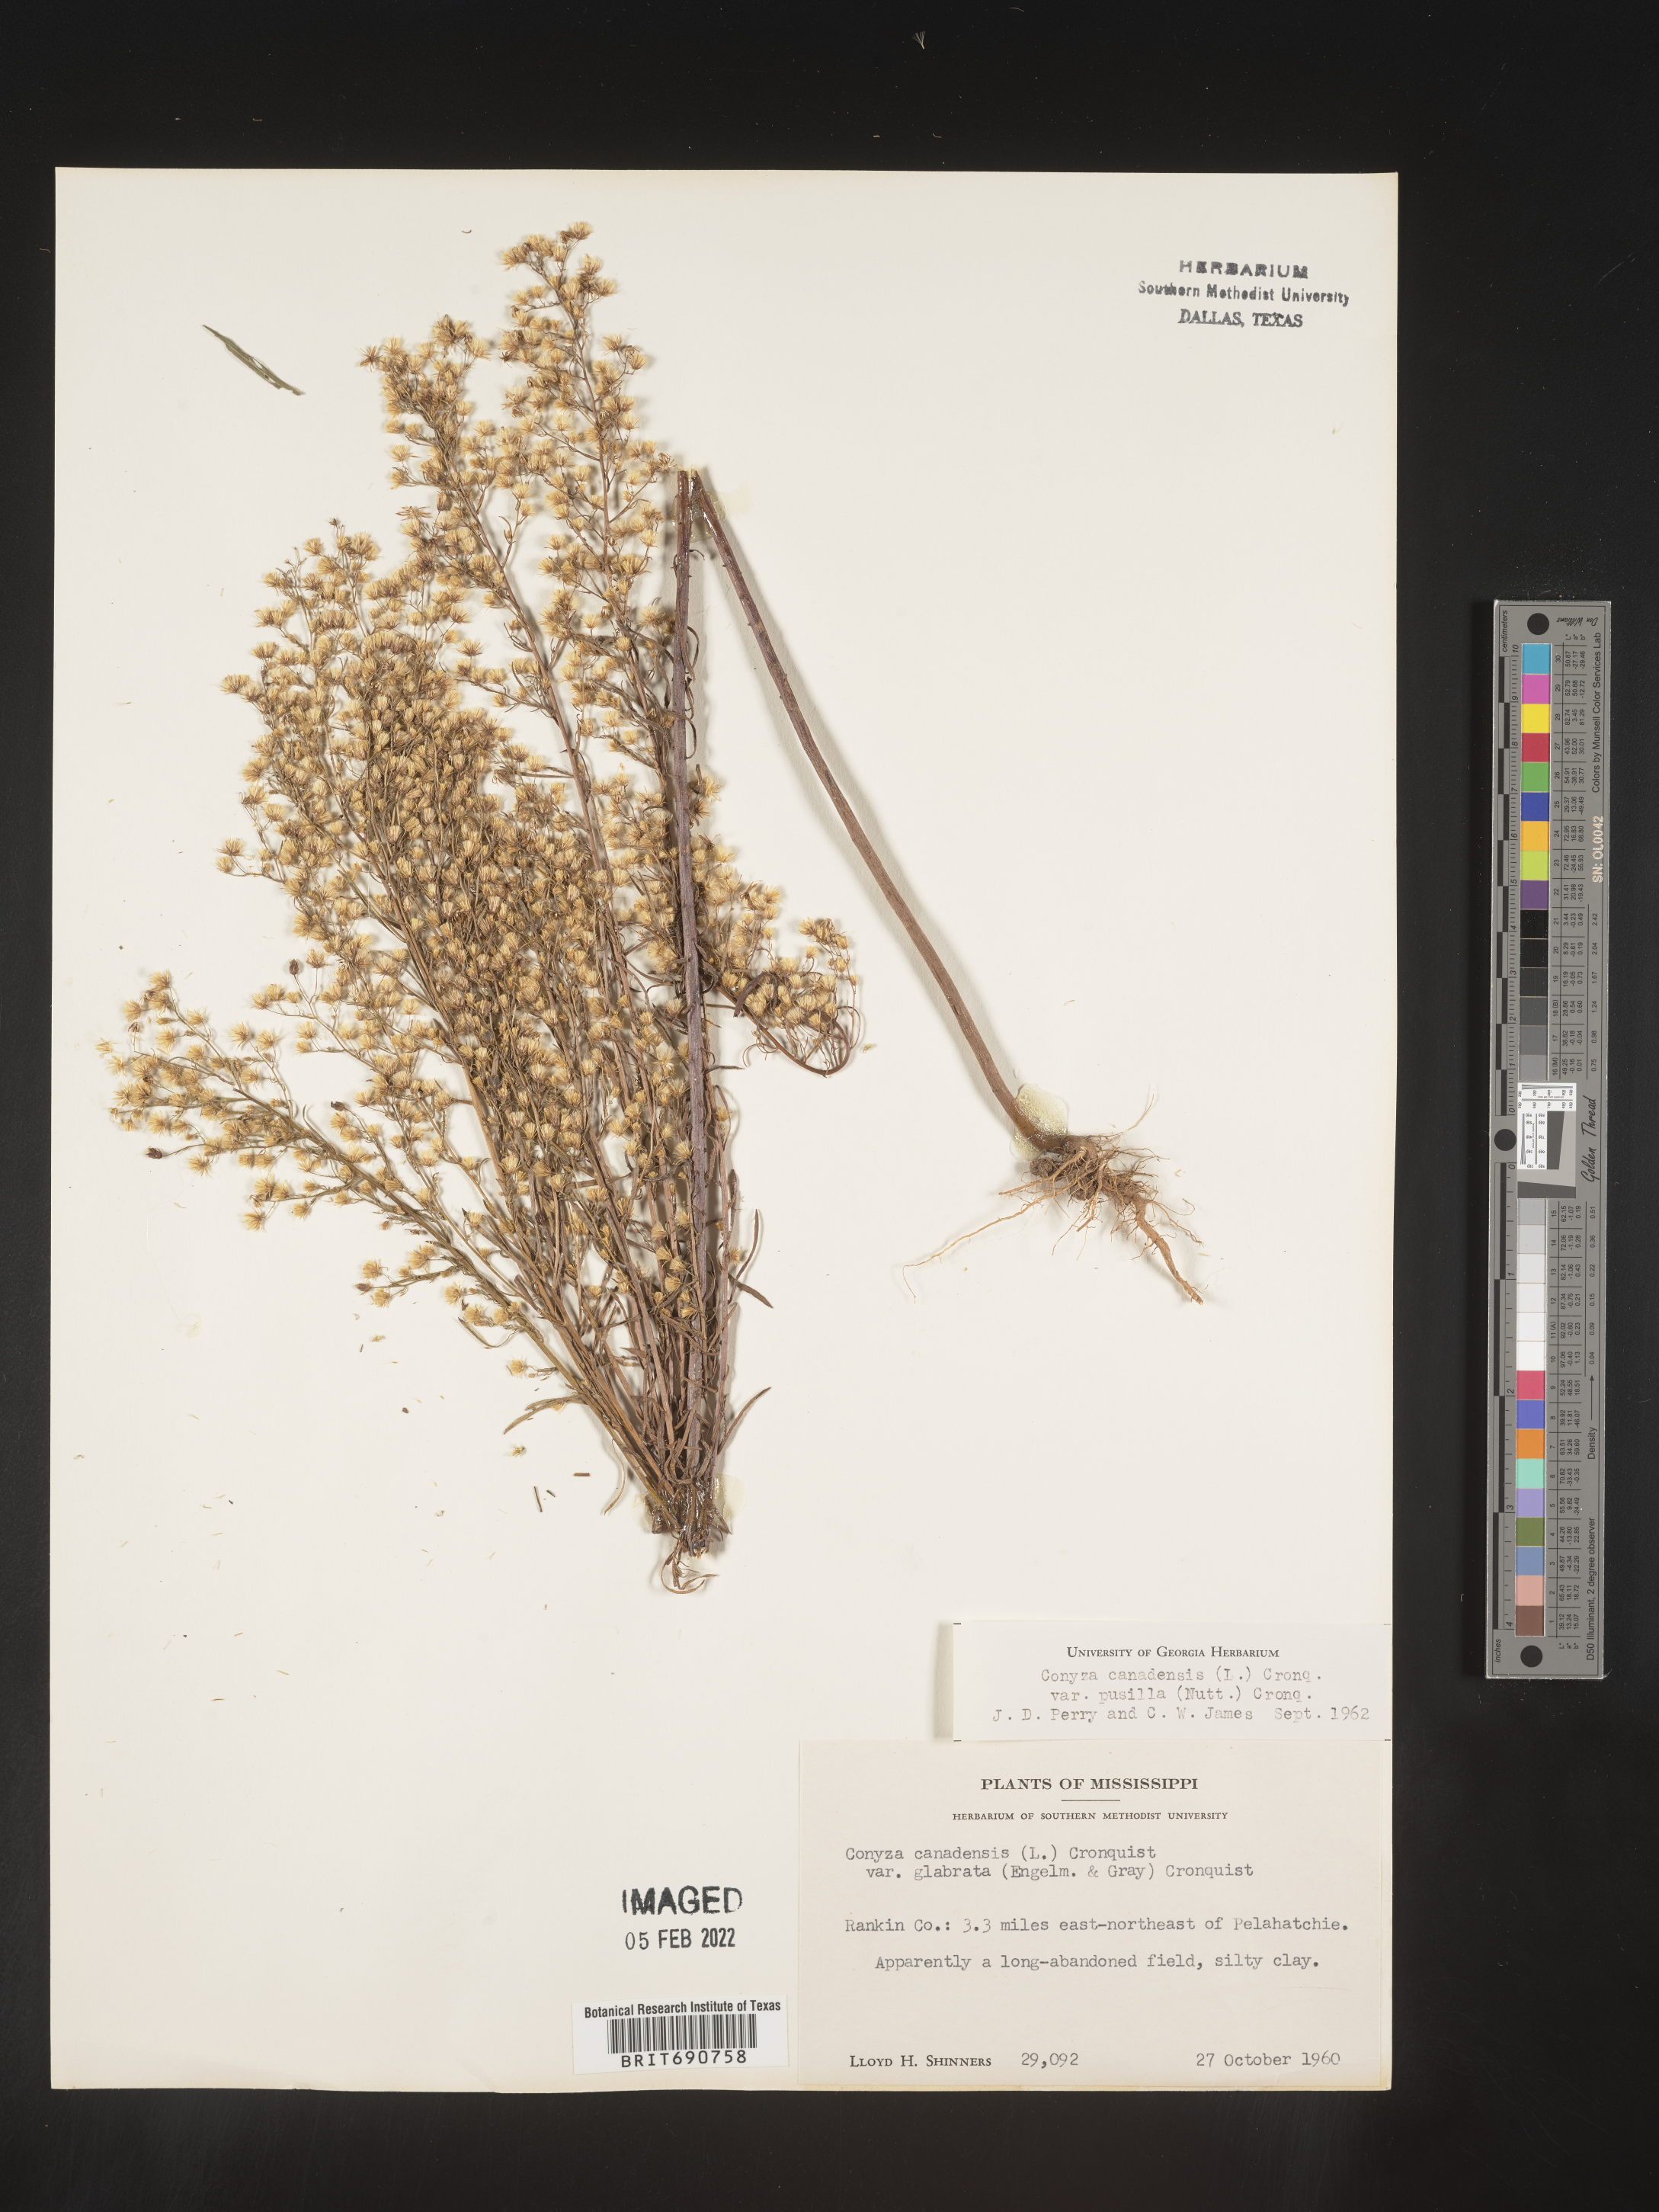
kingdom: Plantae
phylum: Tracheophyta
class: Magnoliopsida
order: Asterales
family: Asteraceae
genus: Erigeron
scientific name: Erigeron canadensis
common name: Canadian fleabane
